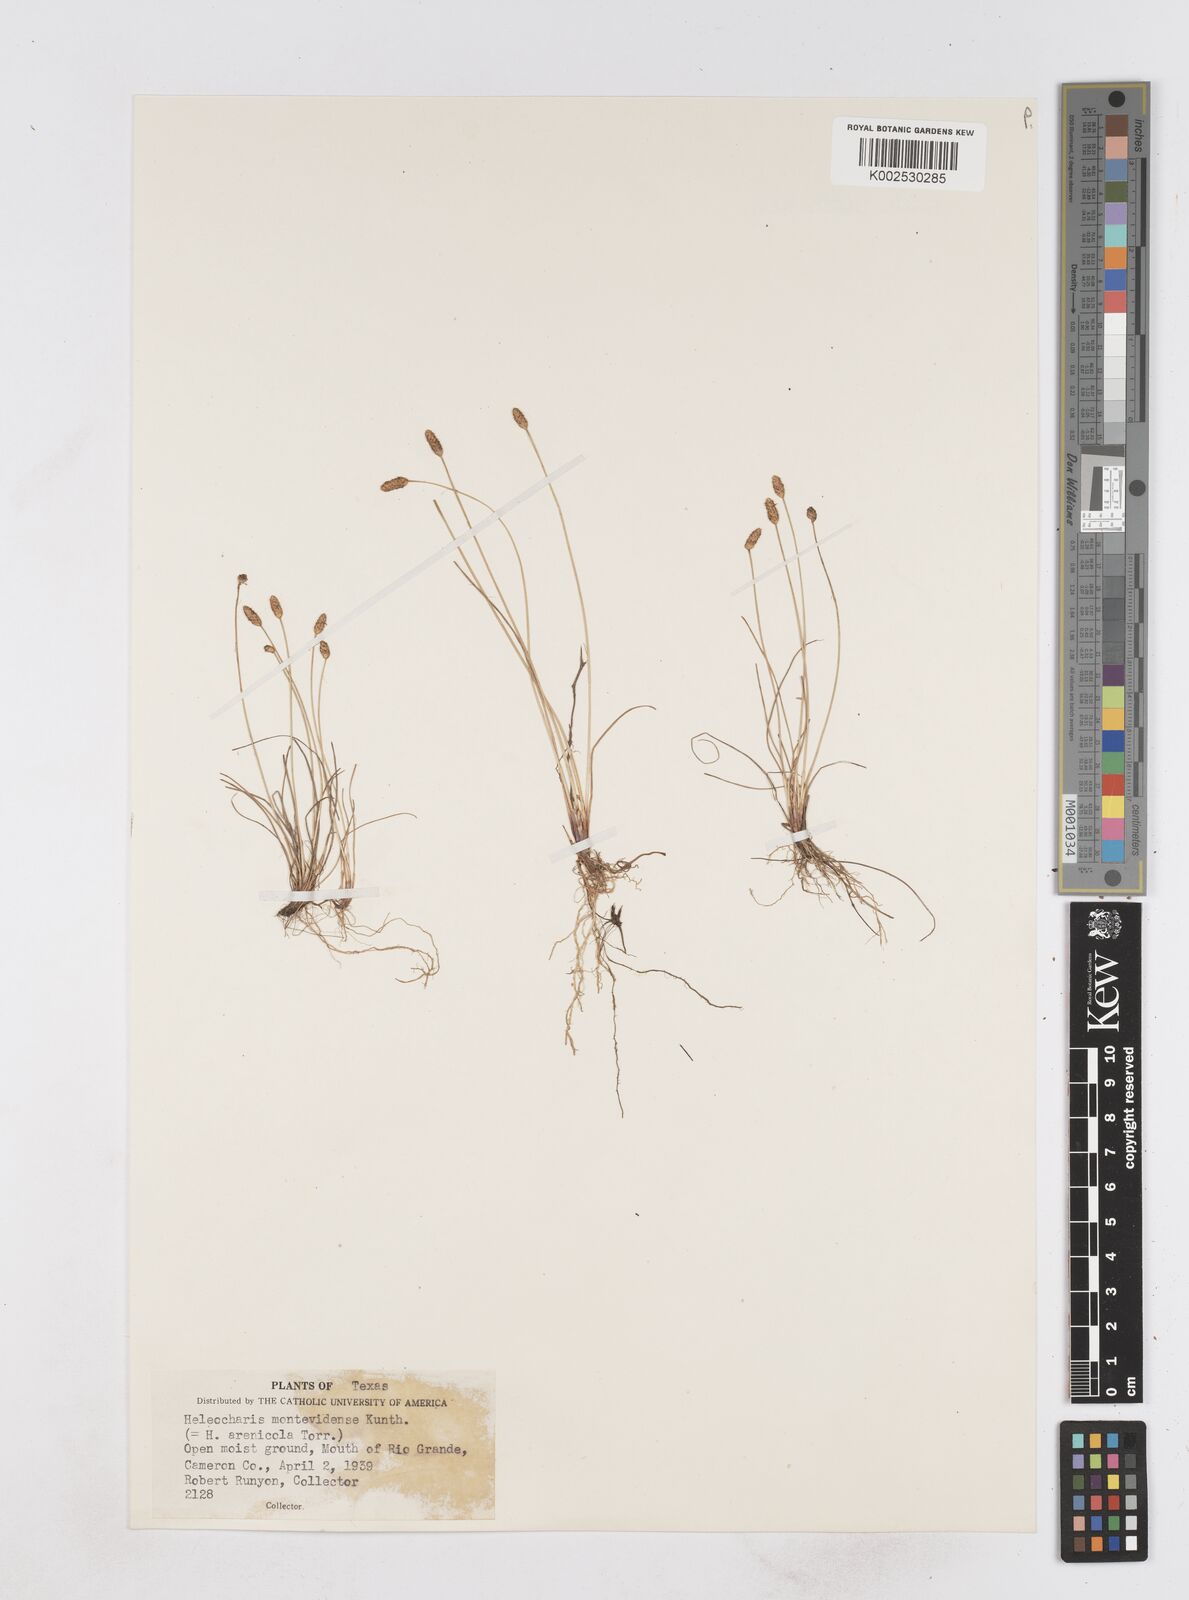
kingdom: Plantae
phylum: Tracheophyta
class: Liliopsida
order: Poales
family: Cyperaceae
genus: Eleocharis
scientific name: Eleocharis montevidensis
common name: Sand spike-rush
